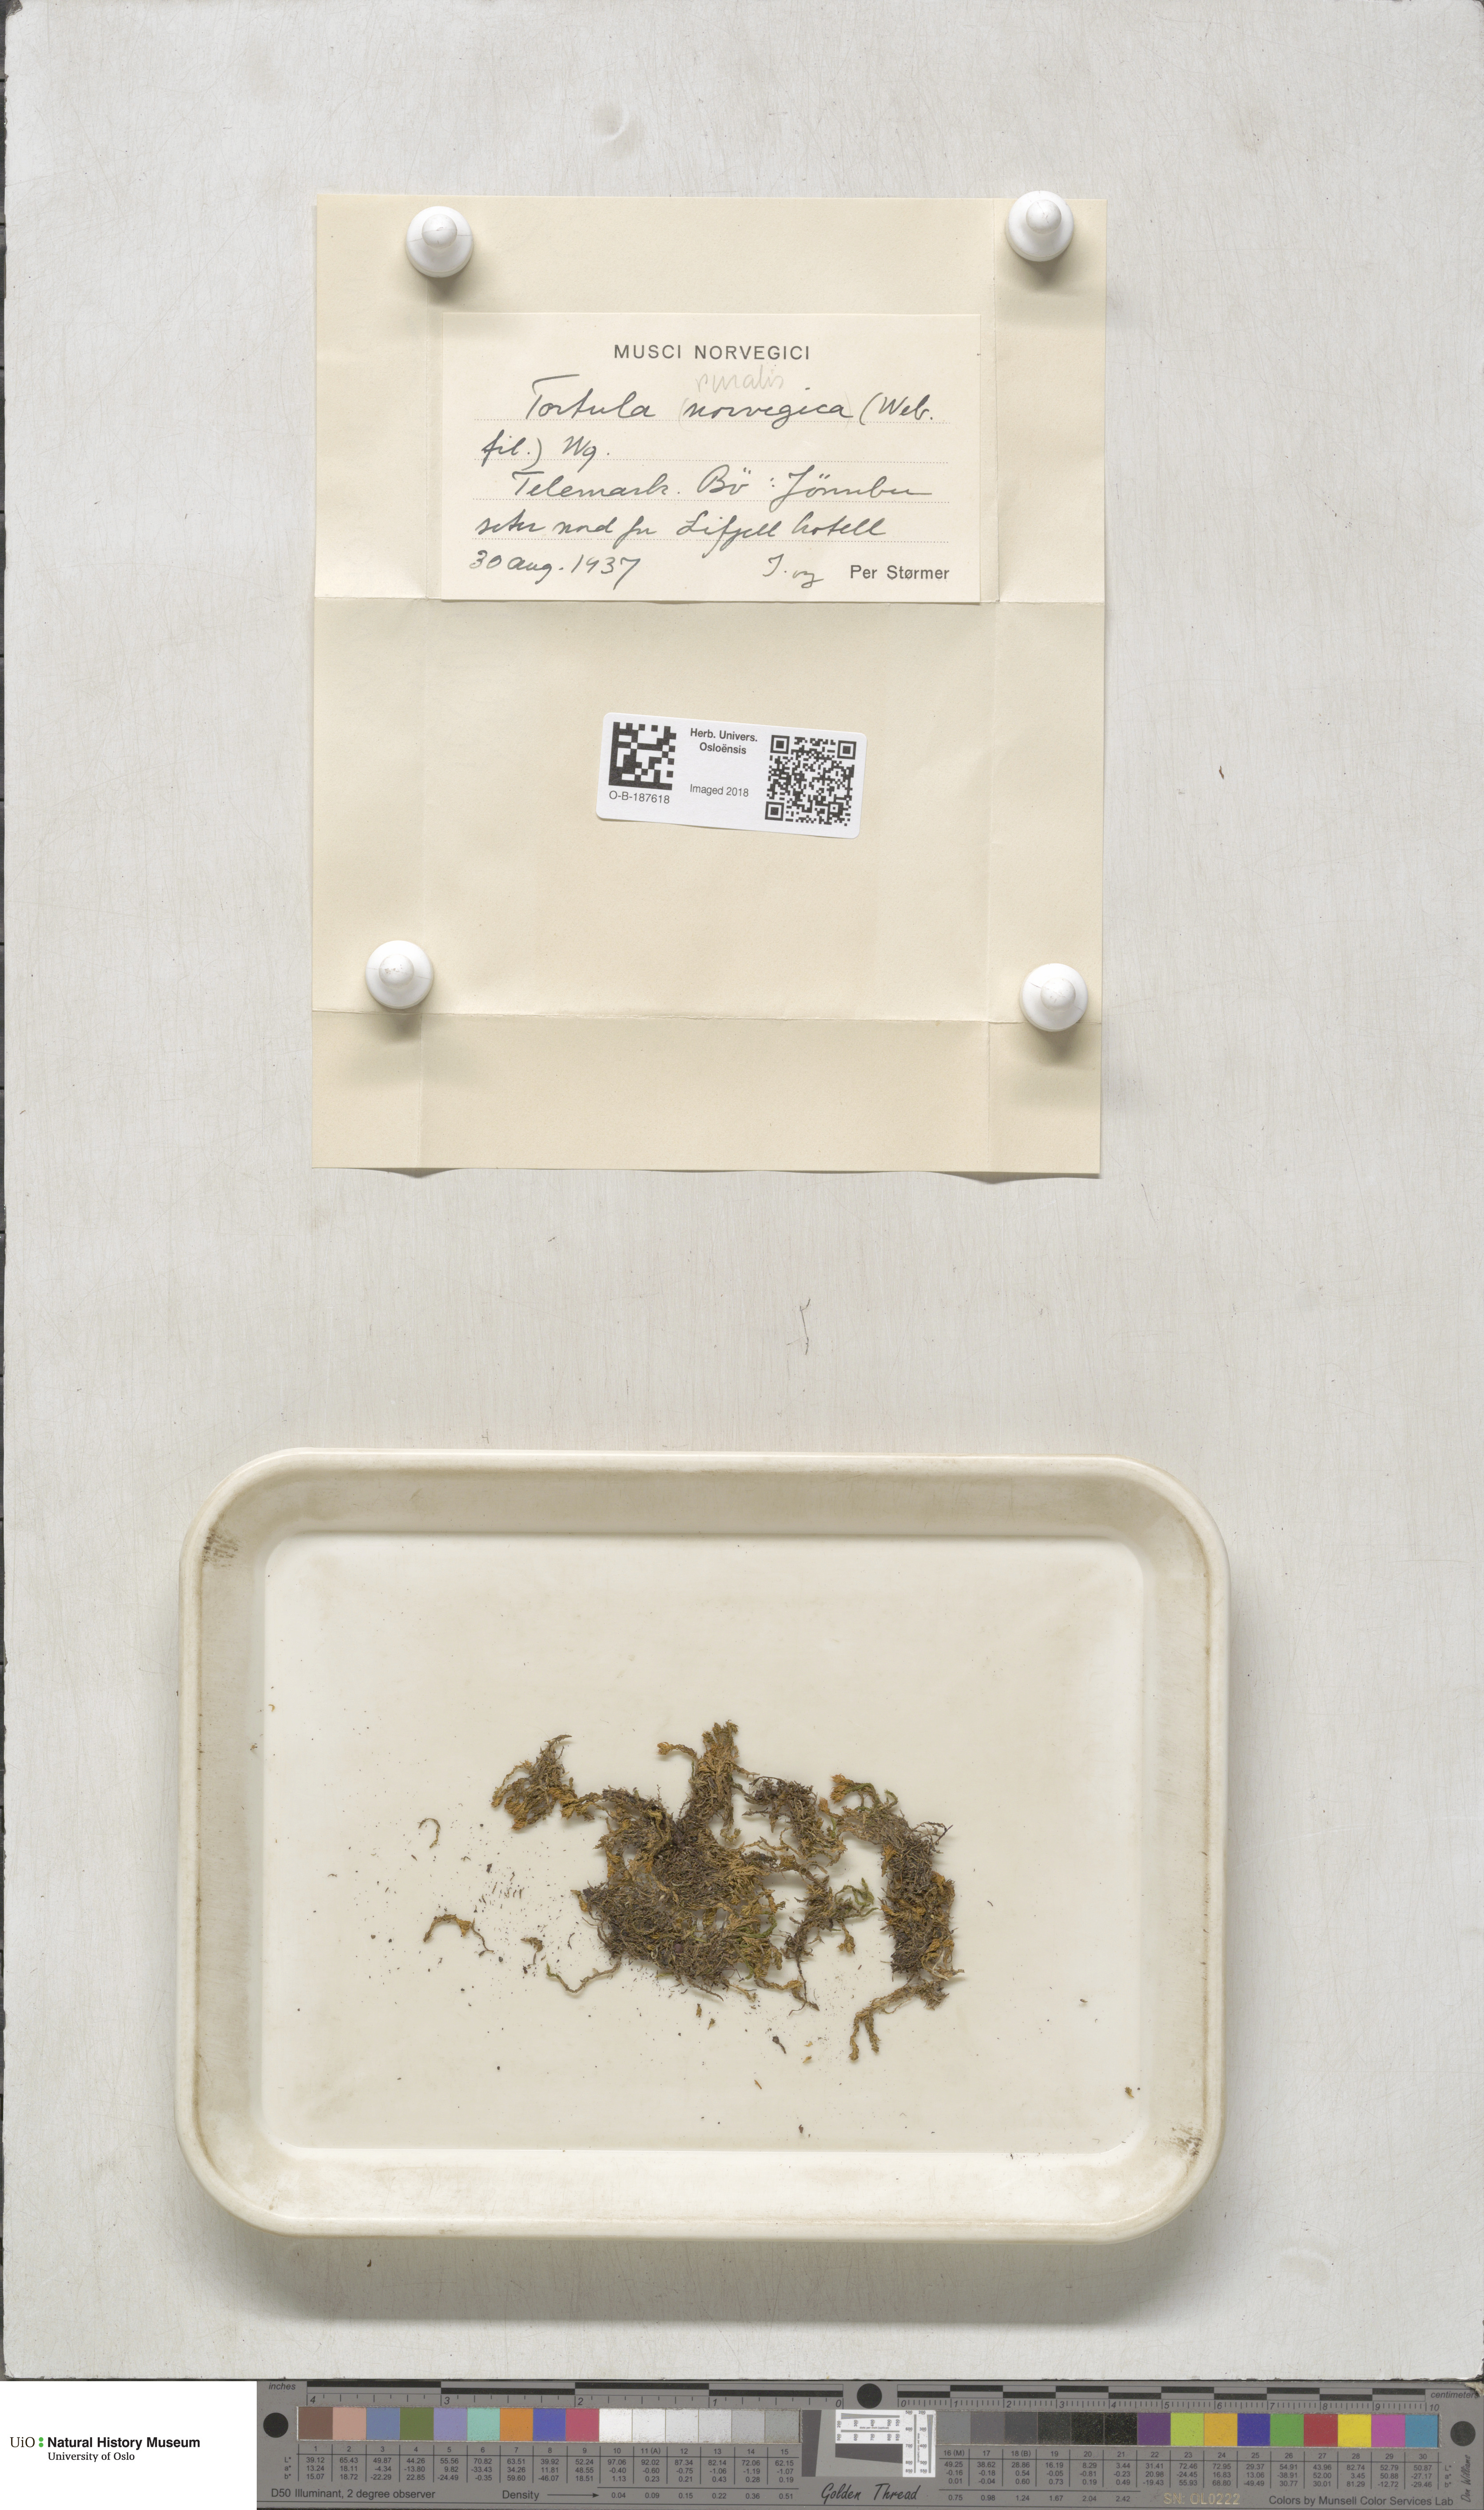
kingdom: Plantae
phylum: Bryophyta
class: Bryopsida
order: Pottiales
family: Pottiaceae
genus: Syntrichia
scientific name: Syntrichia ruralis
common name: Sidewalk screw moss
